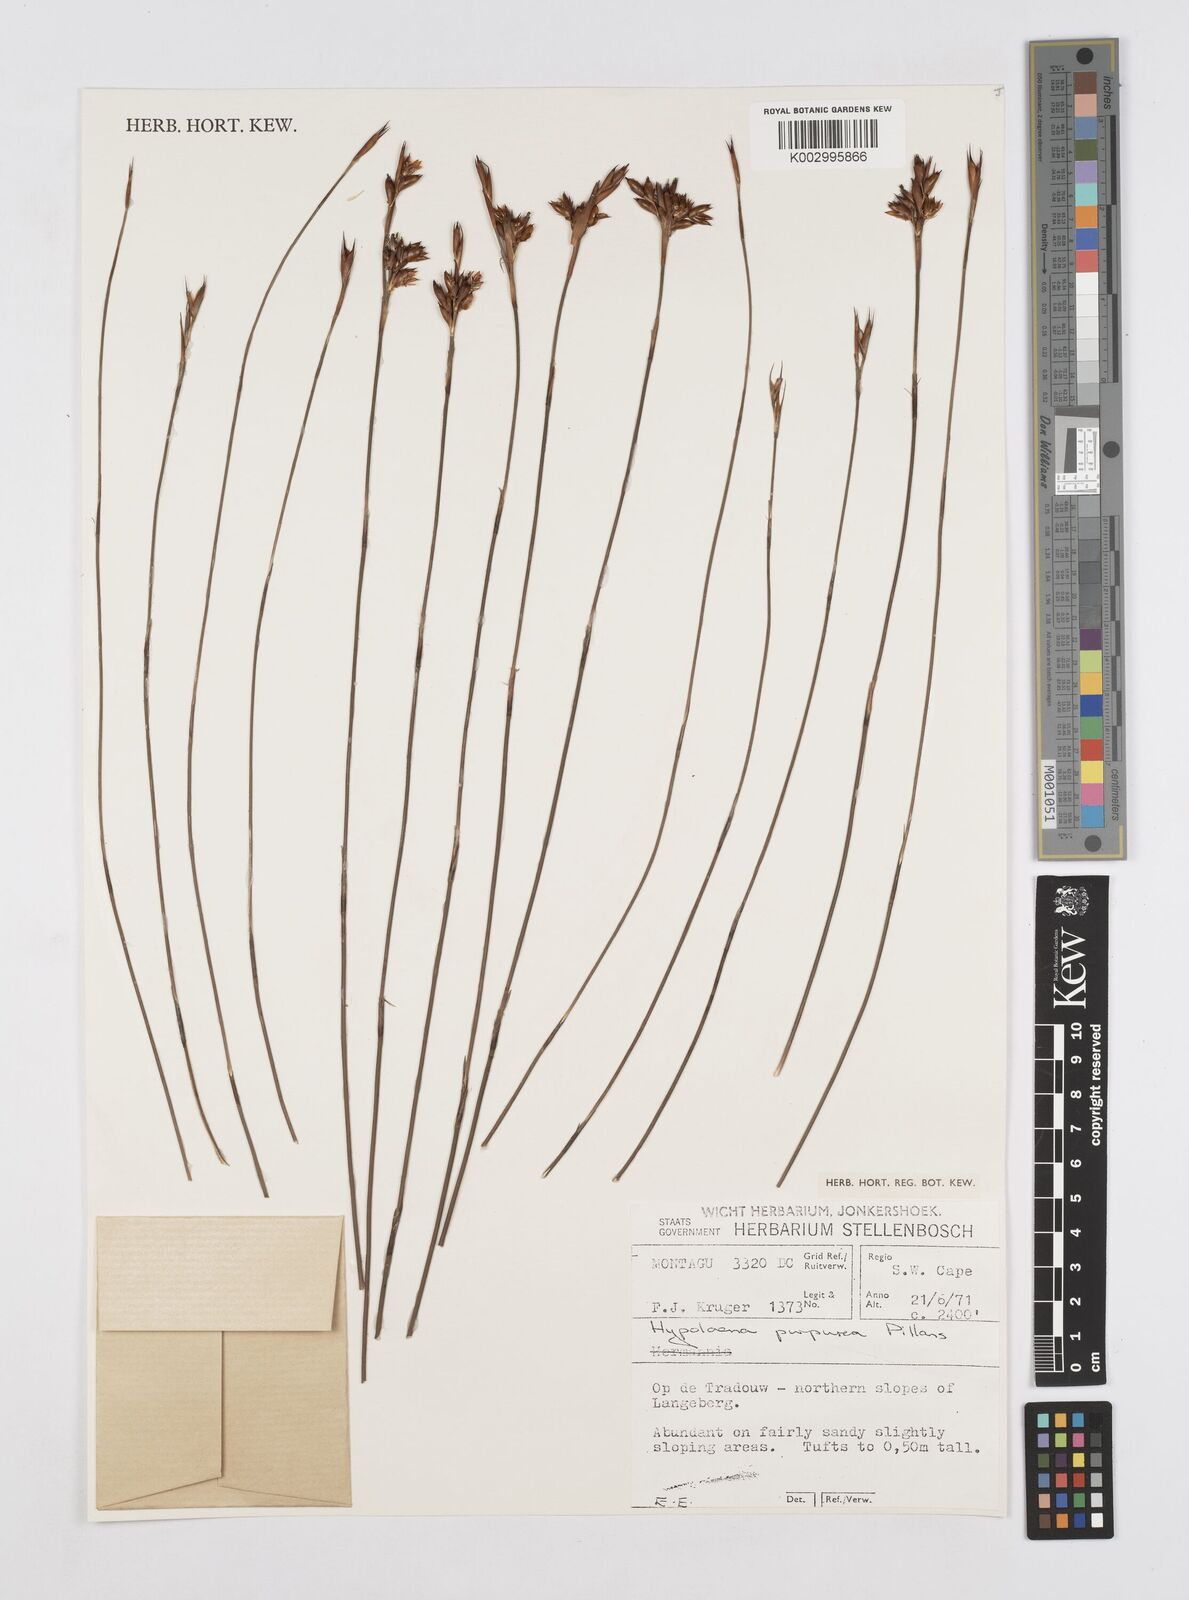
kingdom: Plantae
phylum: Tracheophyta
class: Liliopsida
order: Poales
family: Restionaceae
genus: Mastersiella
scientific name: Mastersiella purpurea
